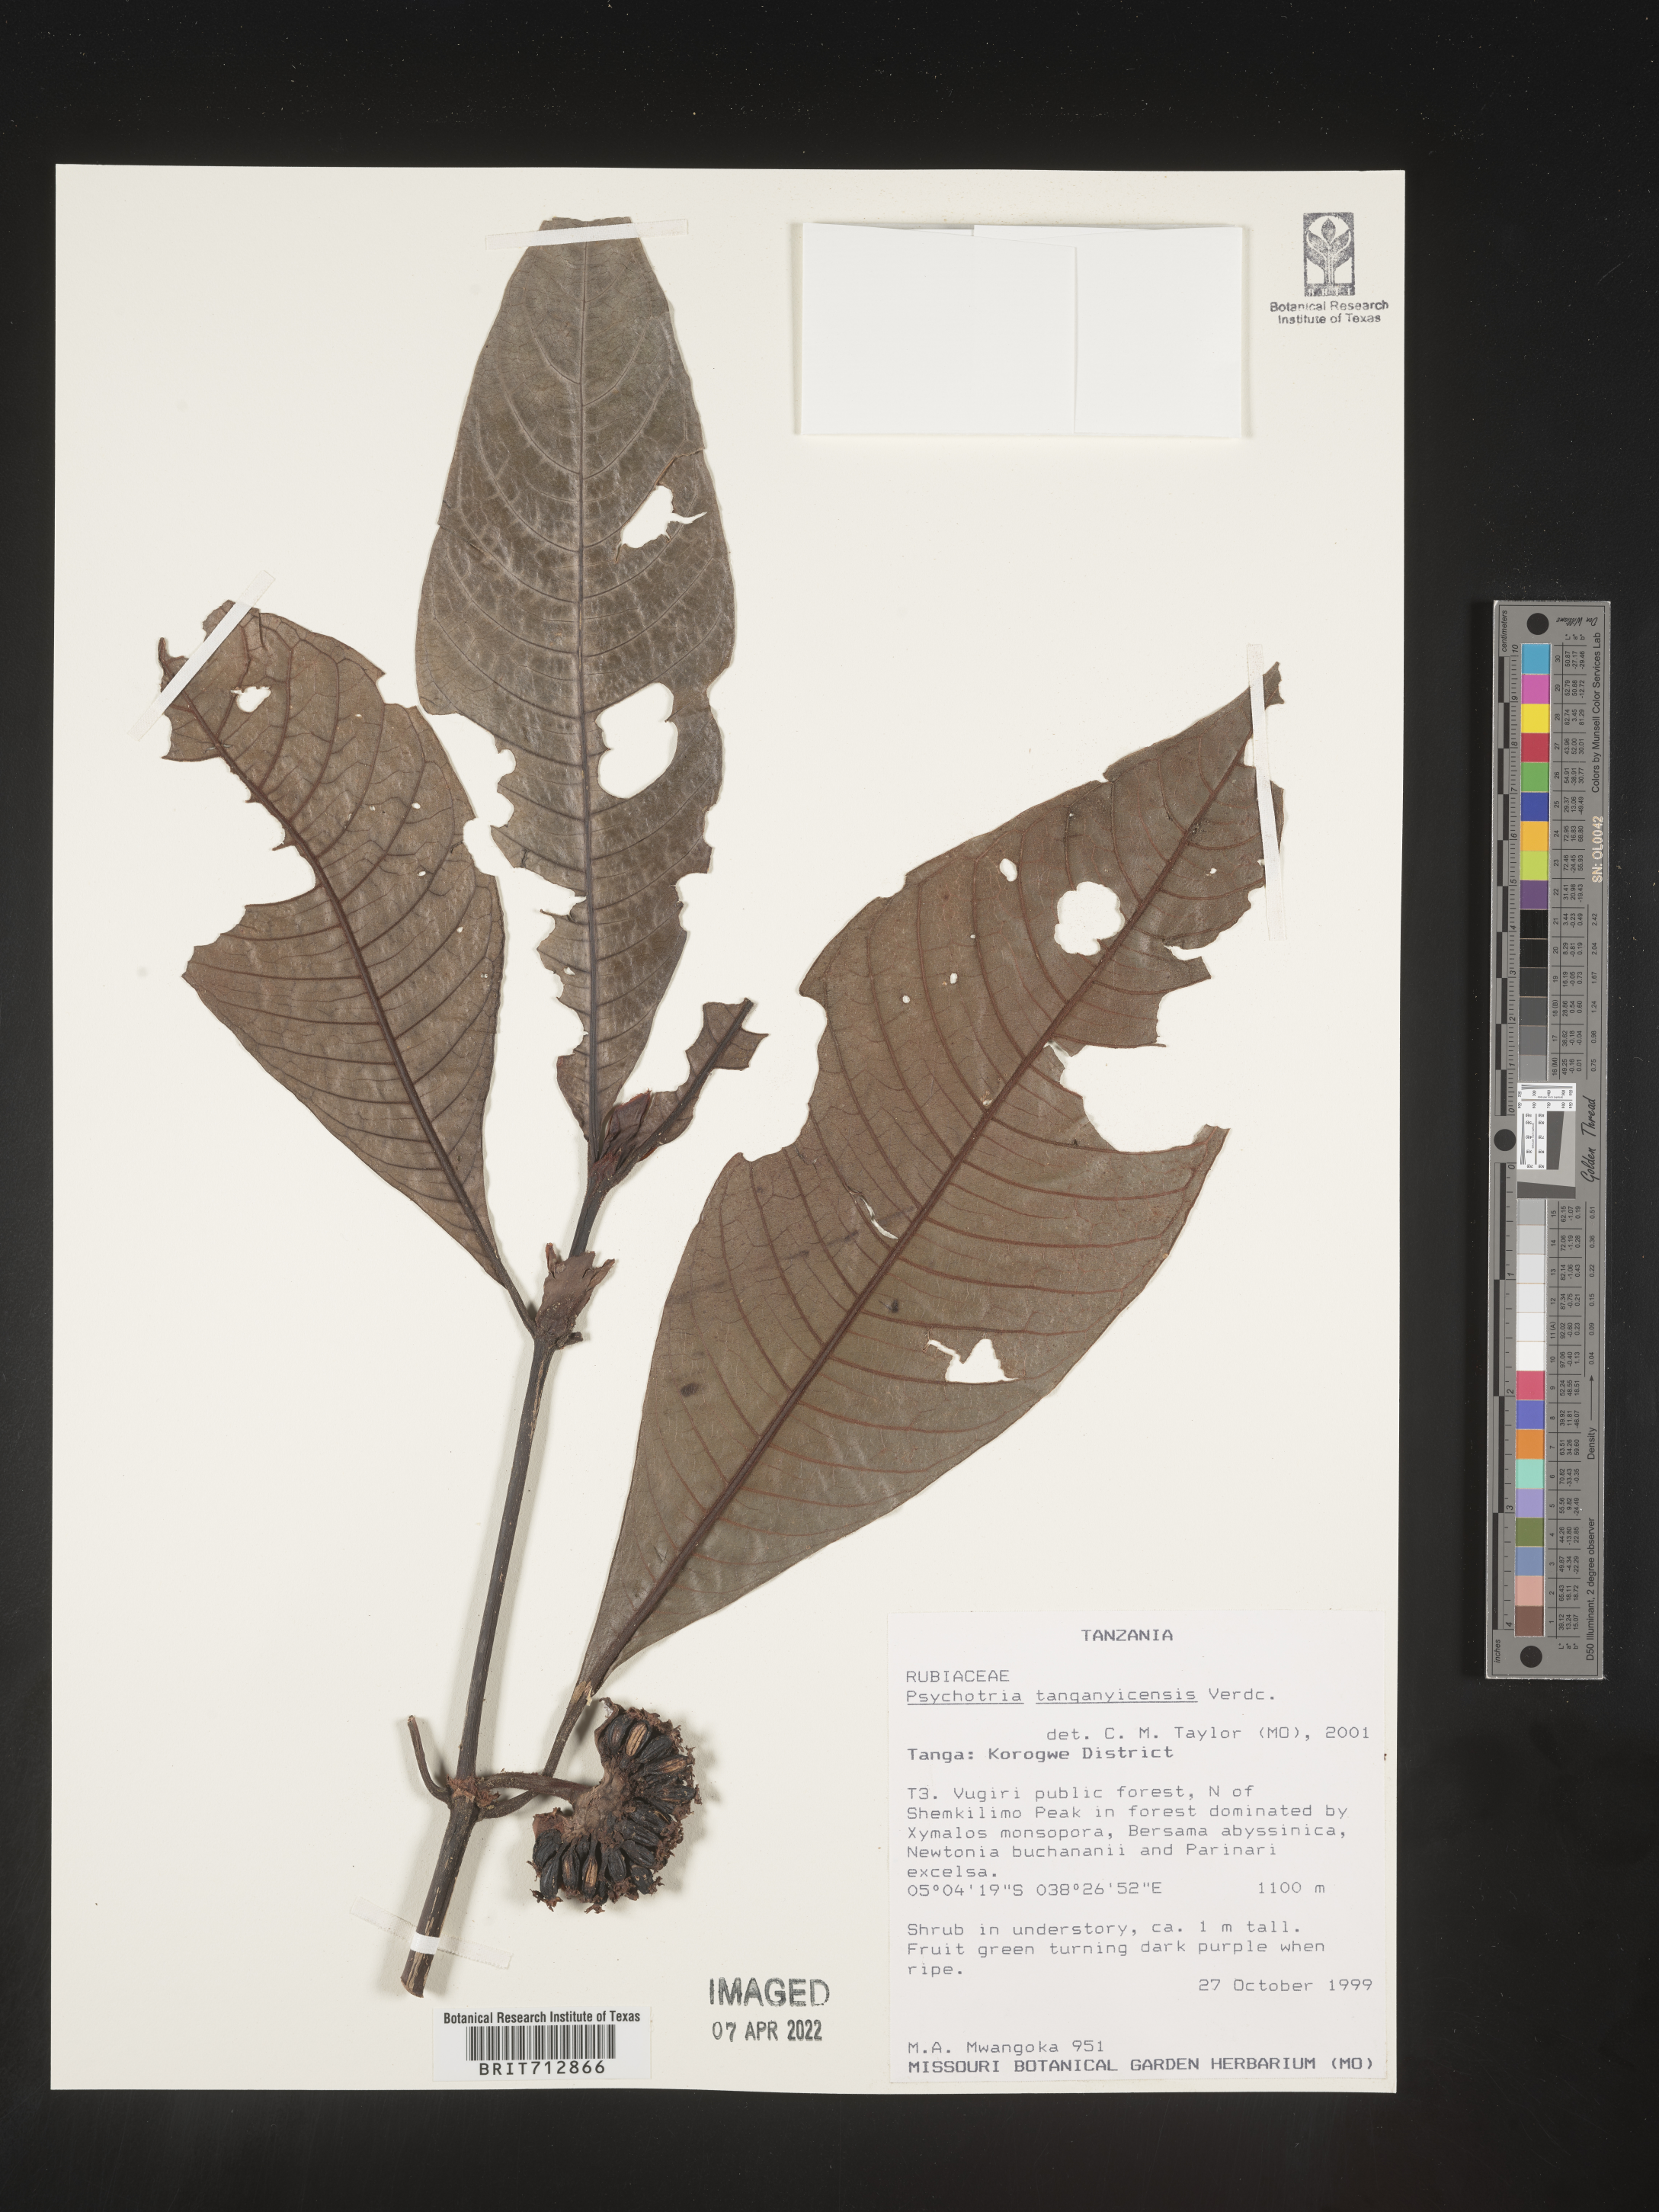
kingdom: Plantae
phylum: Tracheophyta
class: Magnoliopsida
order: Gentianales
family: Rubiaceae
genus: Psychotria
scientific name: Psychotria
